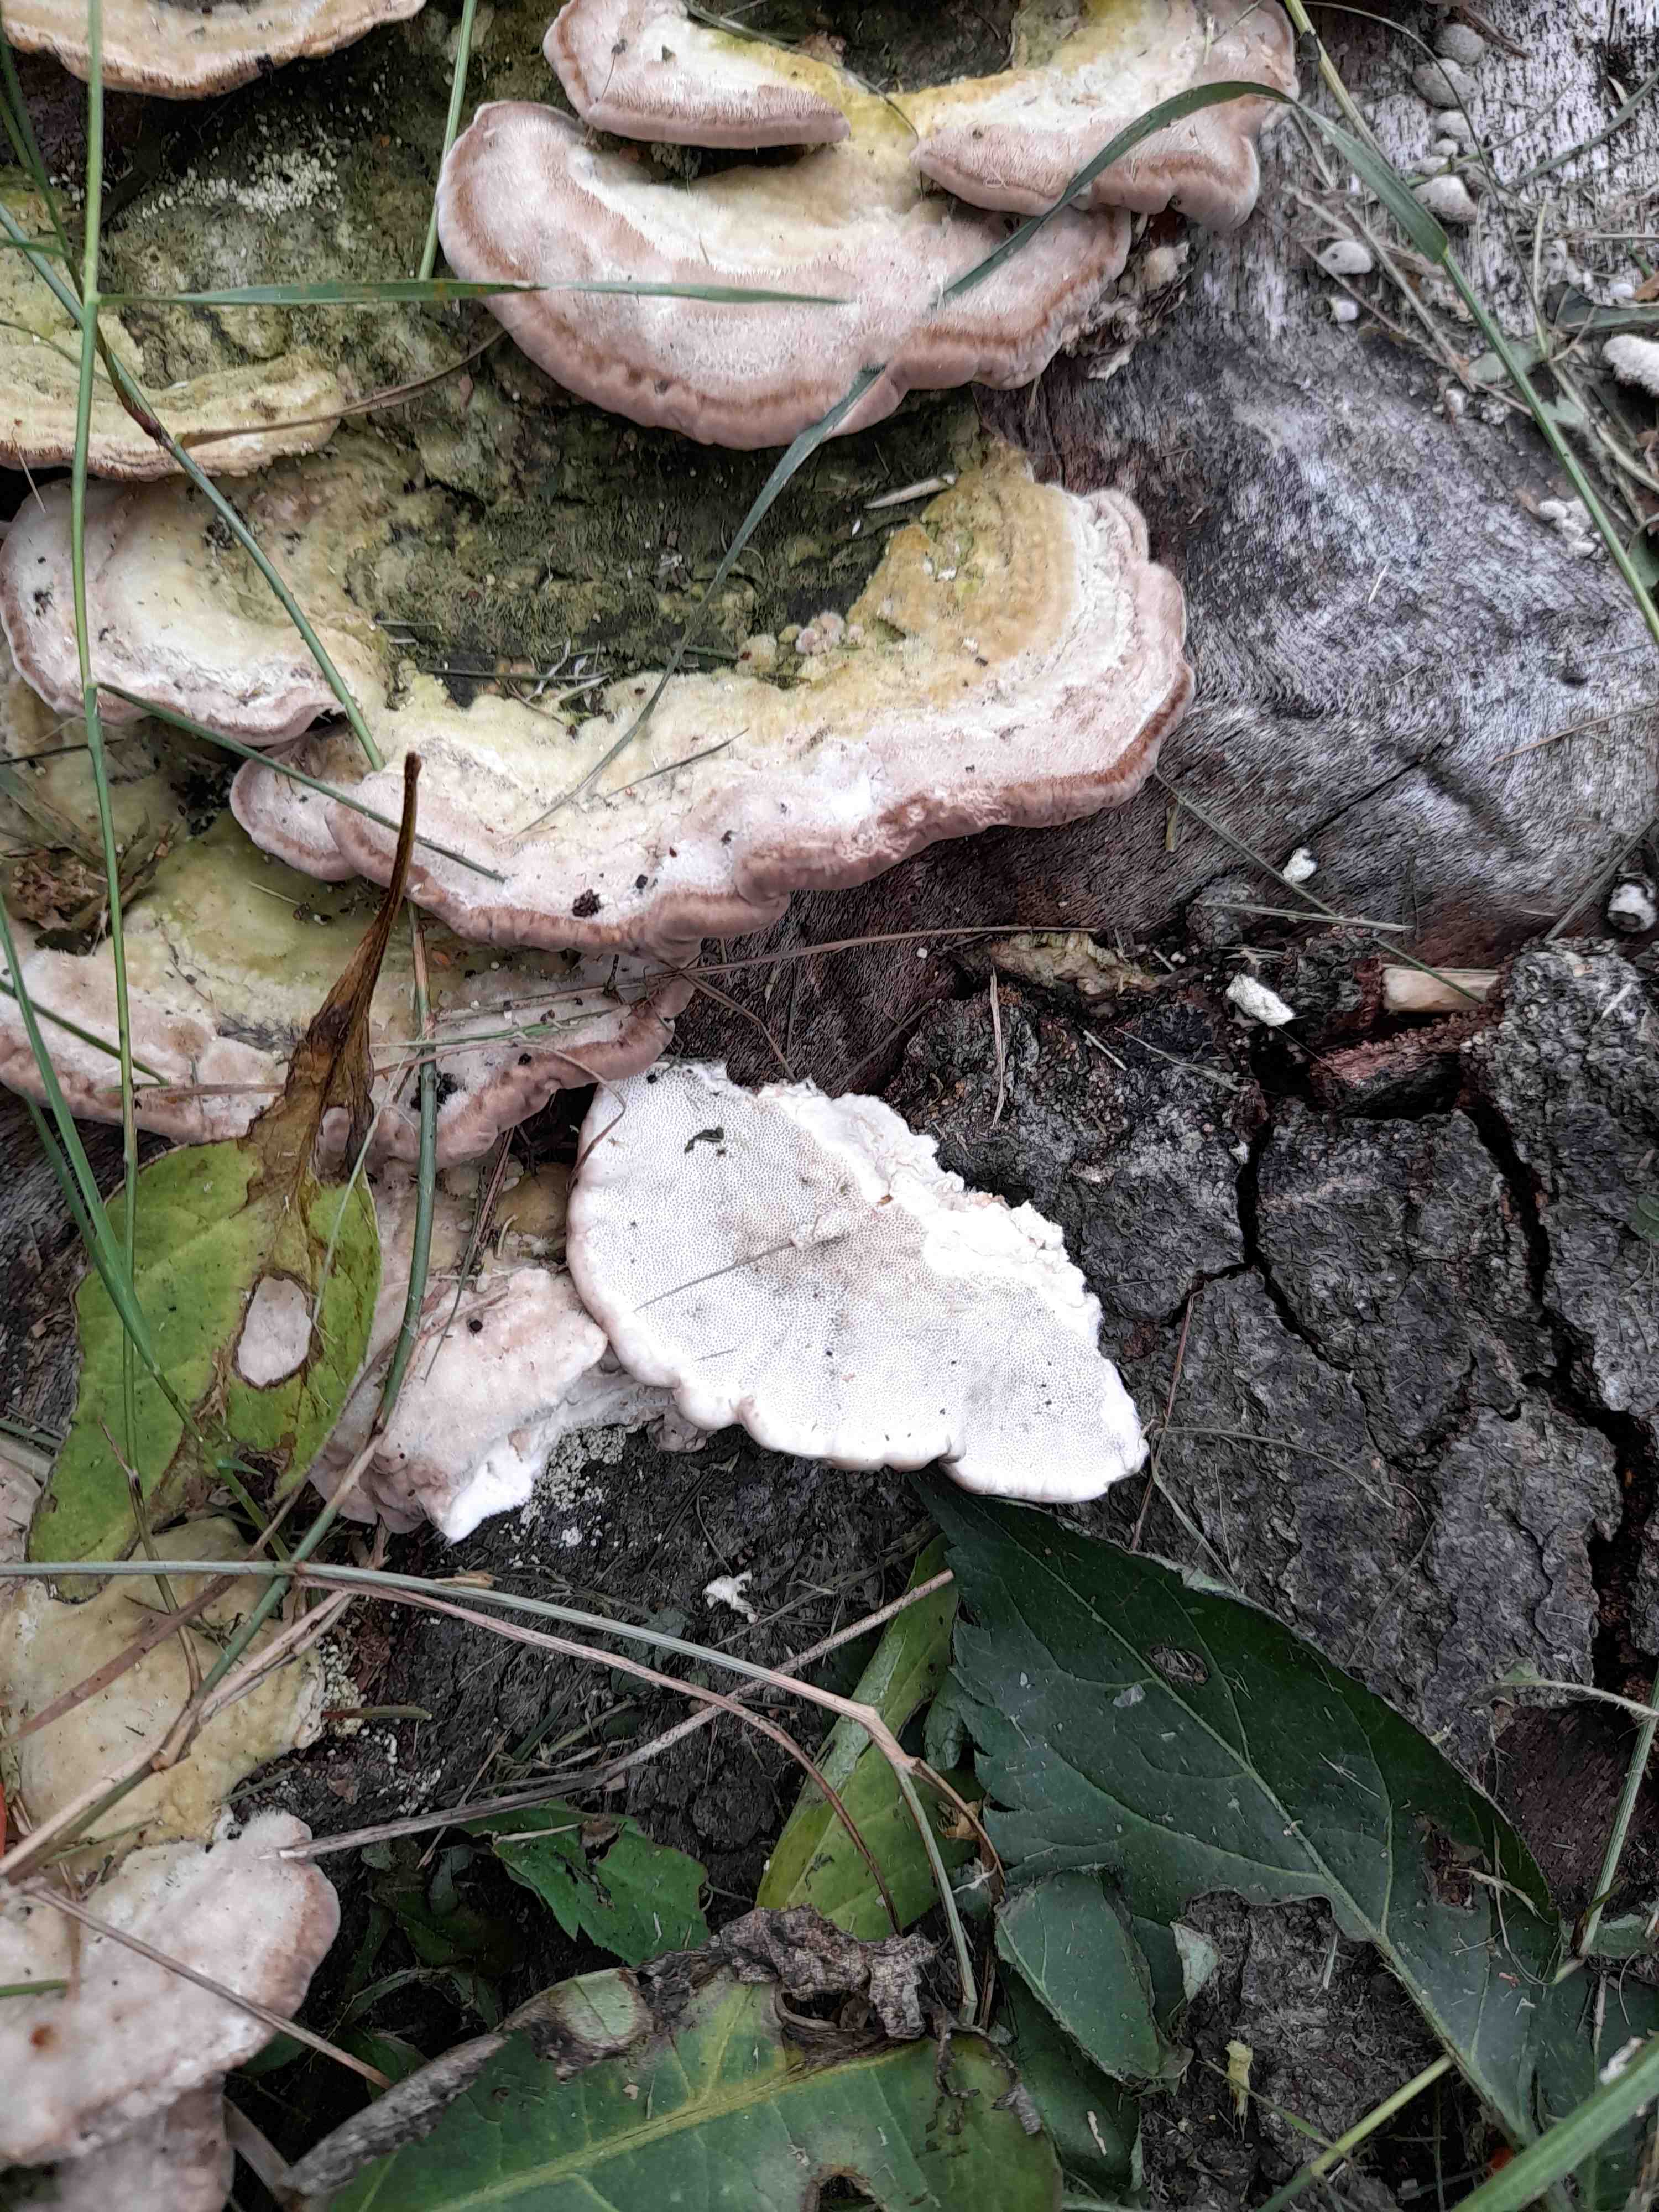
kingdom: Fungi
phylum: Basidiomycota
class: Agaricomycetes
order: Polyporales
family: Polyporaceae
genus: Trametes
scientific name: Trametes hirsuta
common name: håret læderporesvamp
